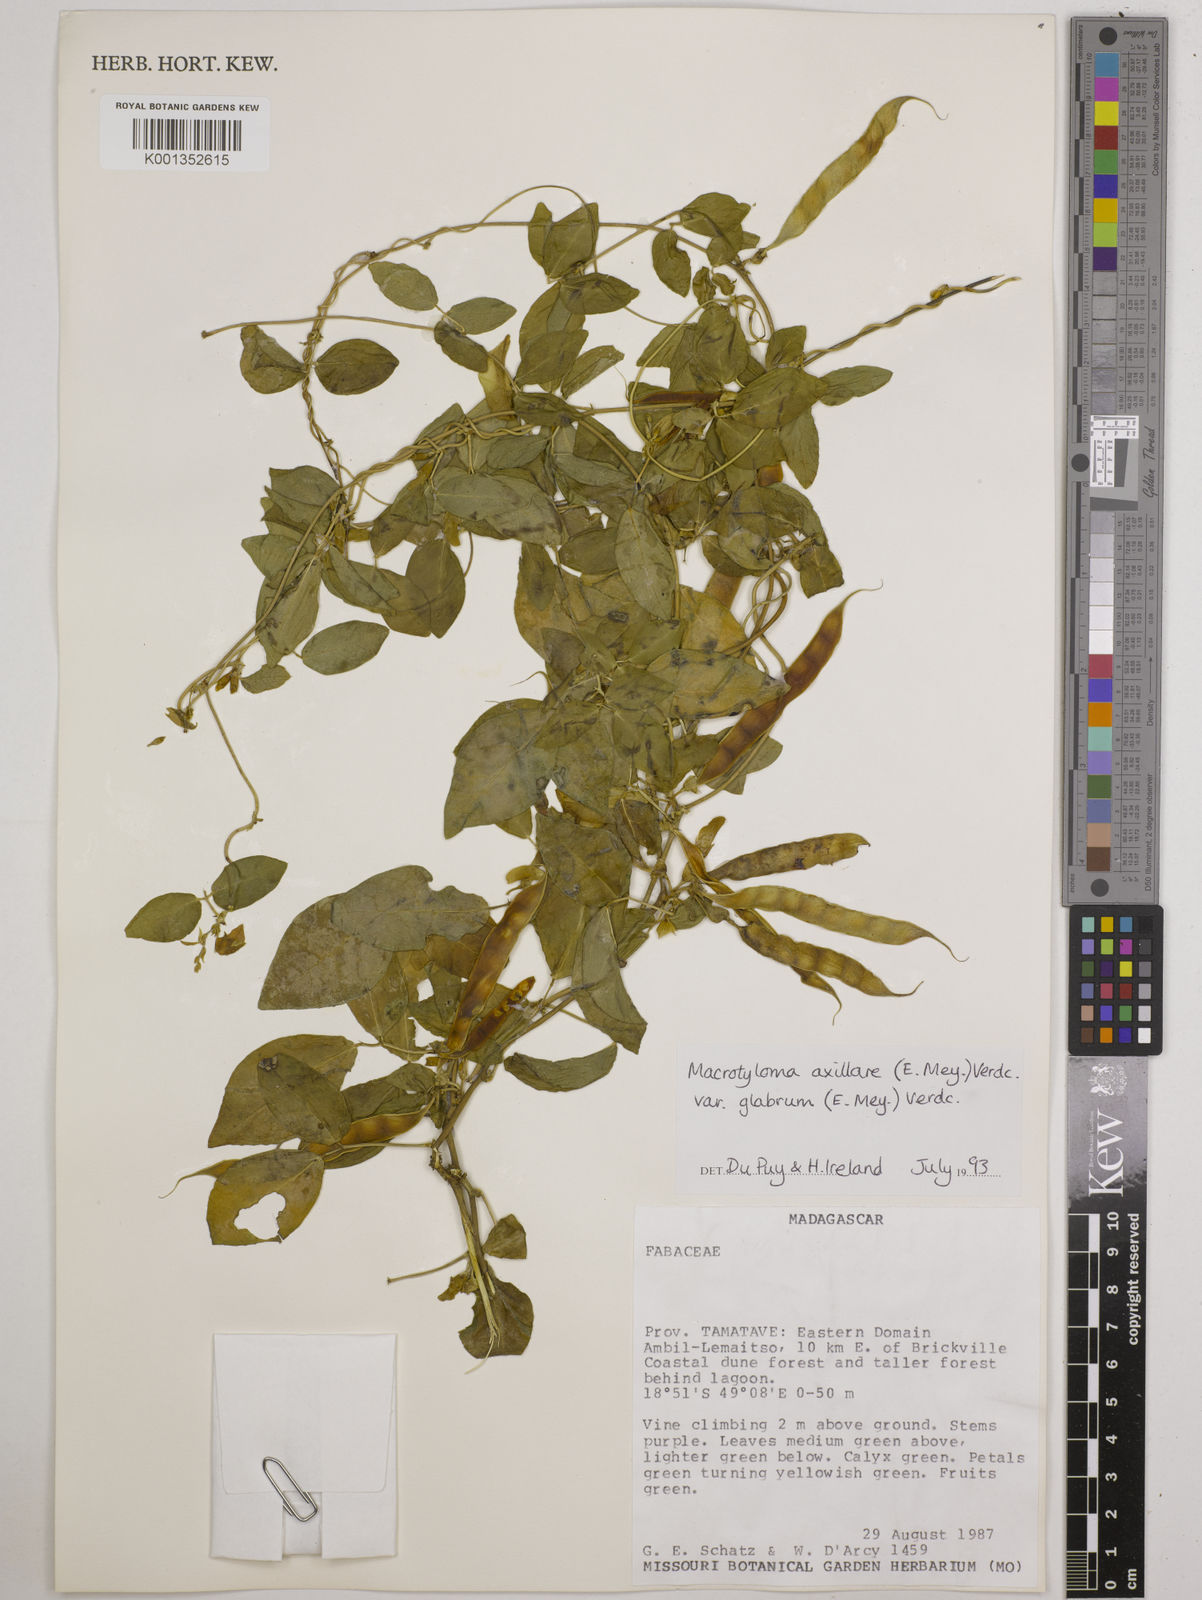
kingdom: Plantae
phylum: Tracheophyta
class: Magnoliopsida
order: Fabales
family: Fabaceae
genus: Macrotyloma
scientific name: Macrotyloma
